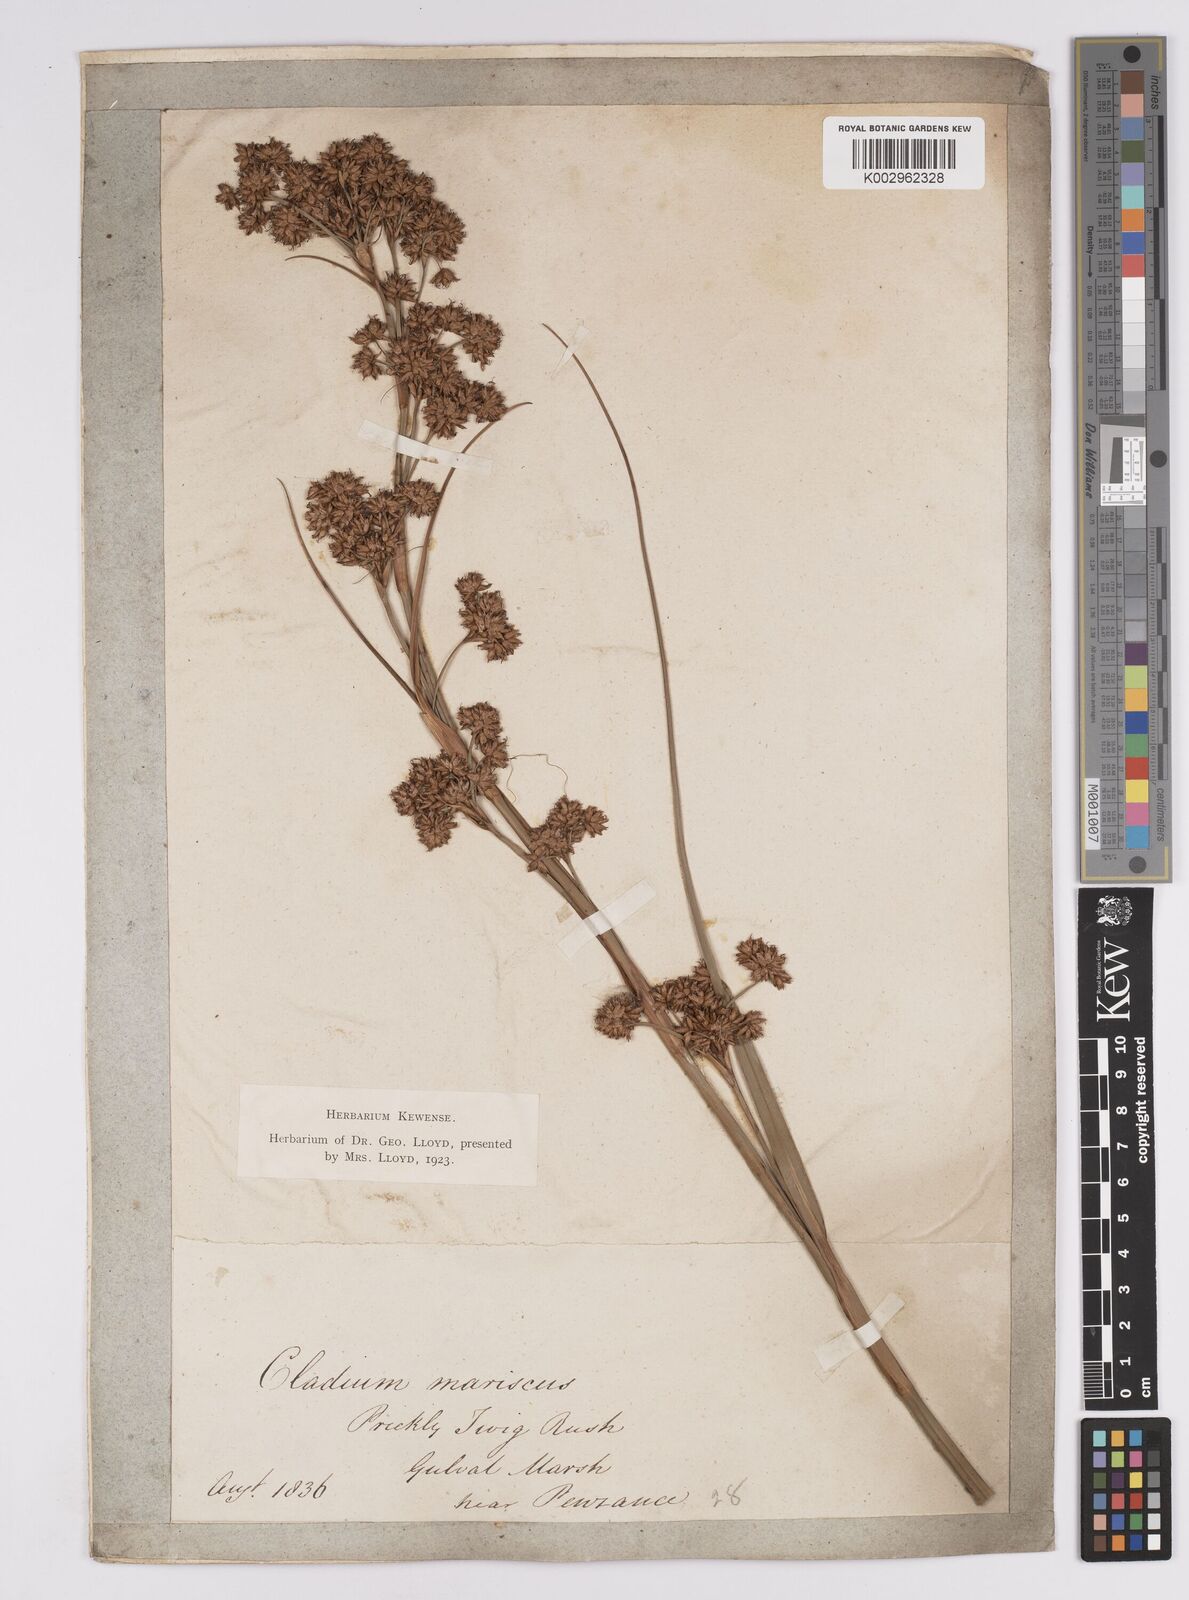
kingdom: Plantae
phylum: Tracheophyta
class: Liliopsida
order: Poales
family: Cyperaceae
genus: Cladium
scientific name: Cladium mariscus
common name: Great fen-sedge
